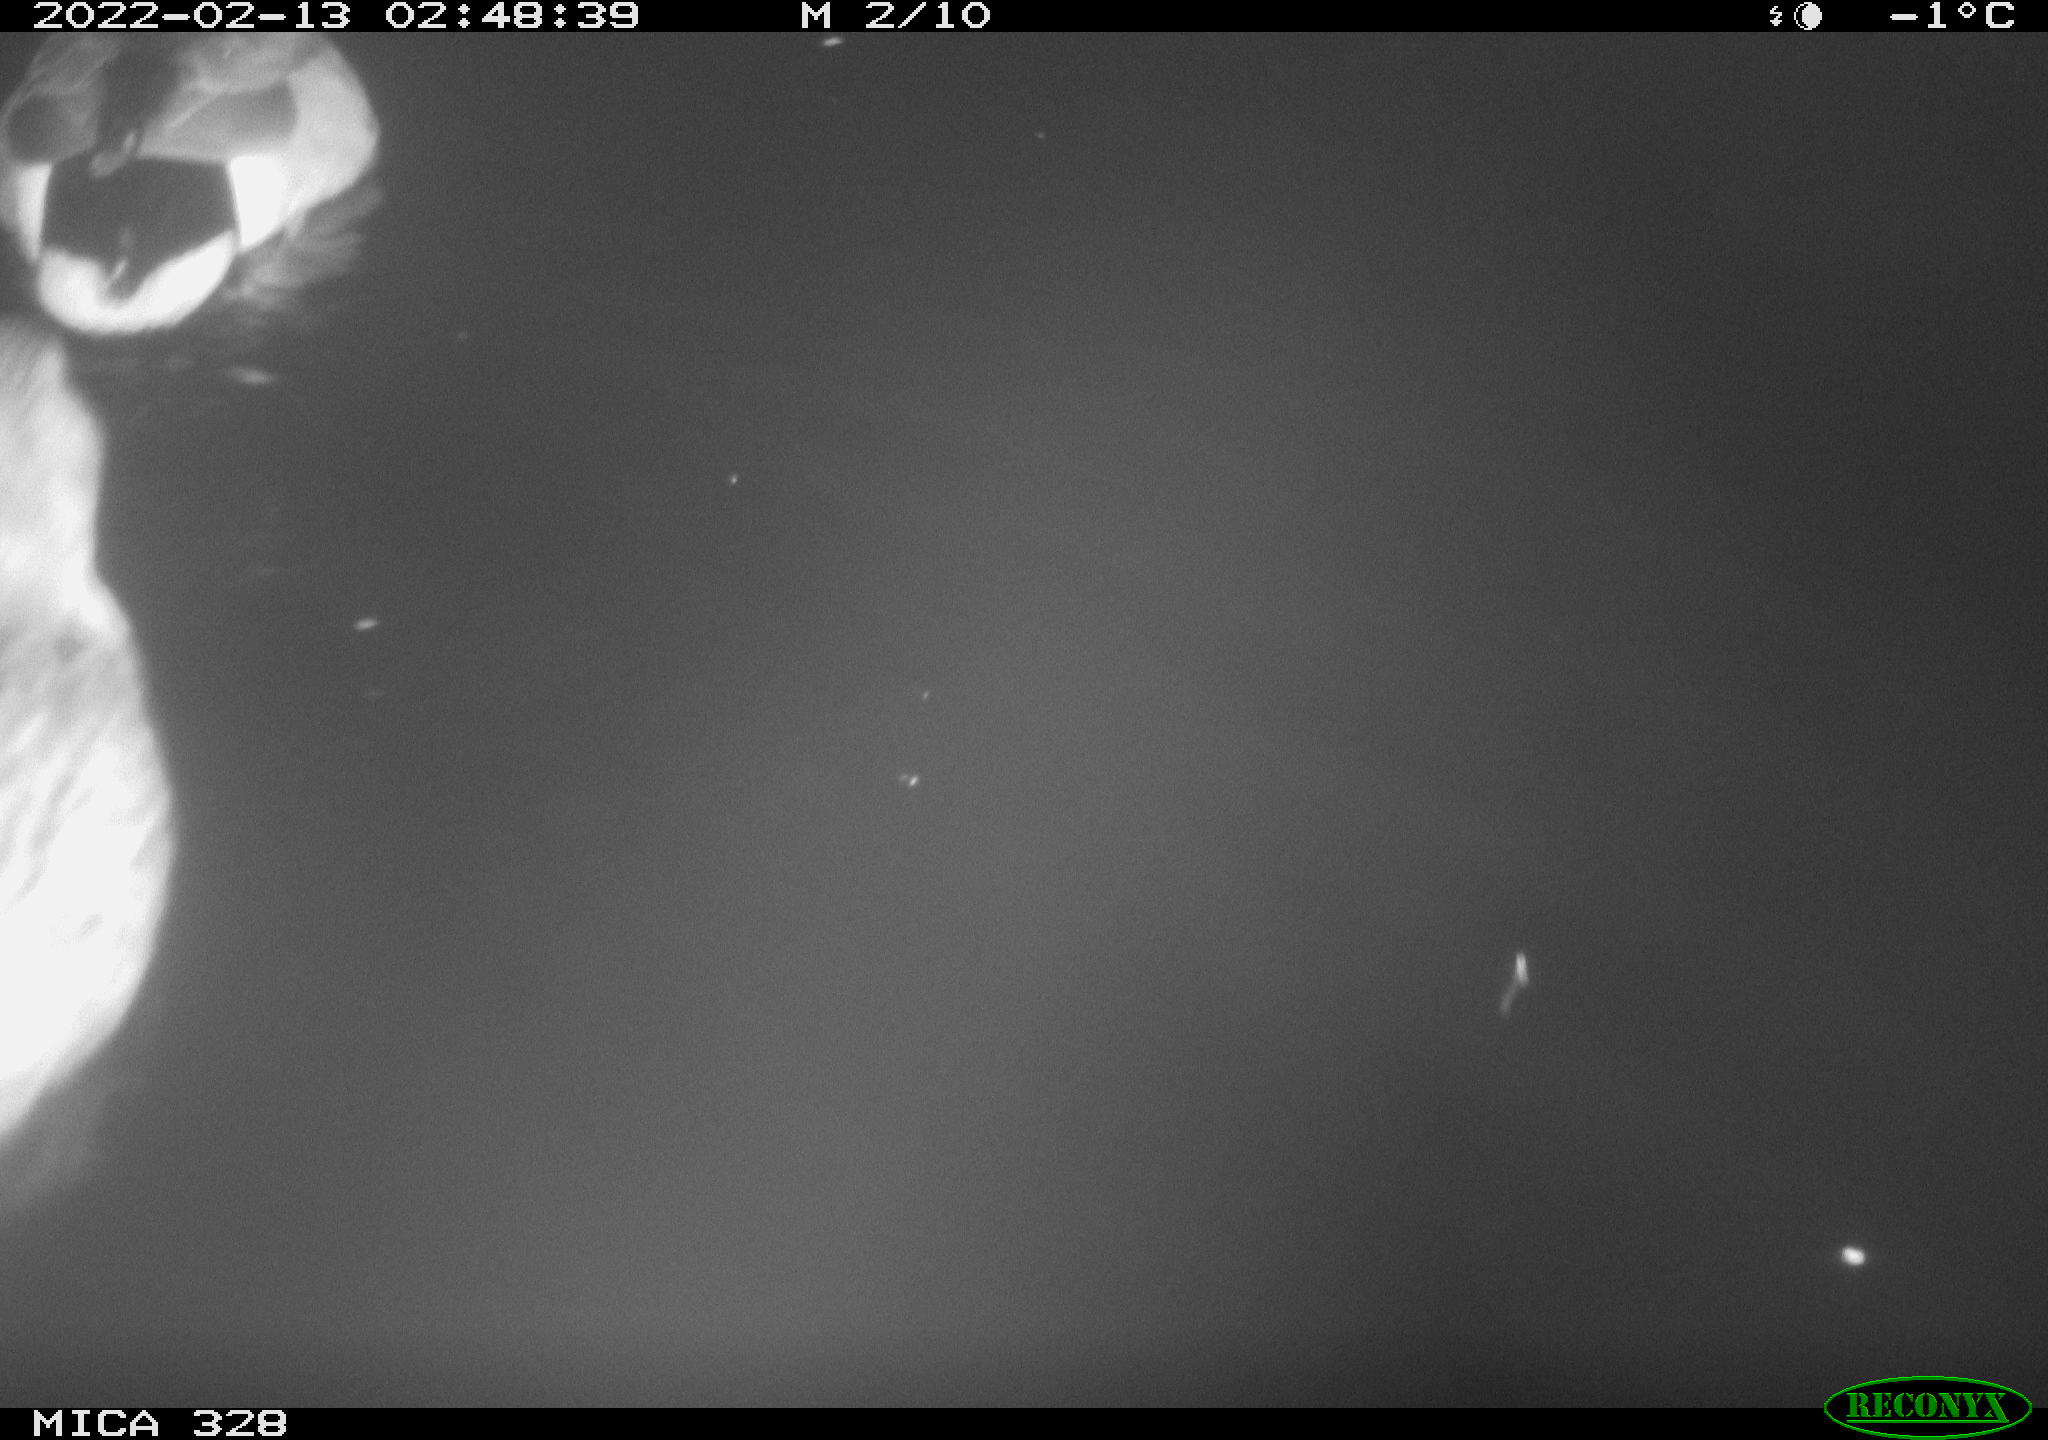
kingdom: Animalia
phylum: Chordata
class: Aves
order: Anseriformes
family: Anatidae
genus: Anas
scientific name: Anas platyrhynchos
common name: Mallard
